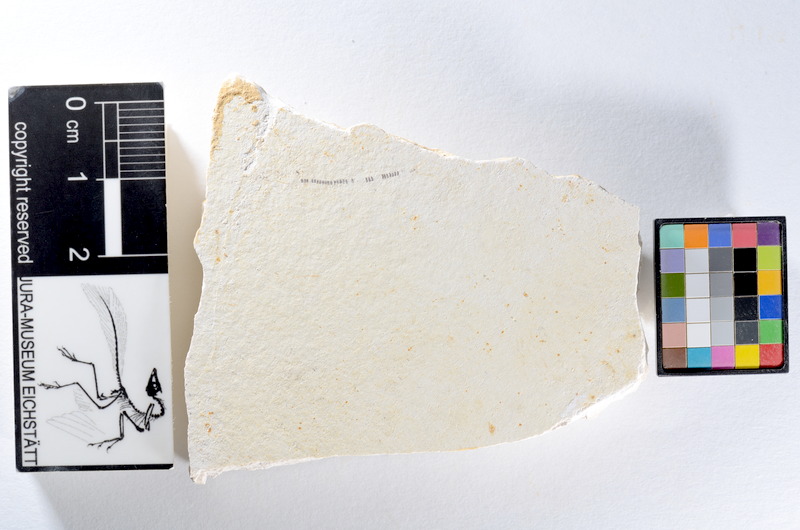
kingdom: Animalia
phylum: Chordata
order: Salmoniformes
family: Orthogonikleithridae
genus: Orthogonikleithrus
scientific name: Orthogonikleithrus hoelli
